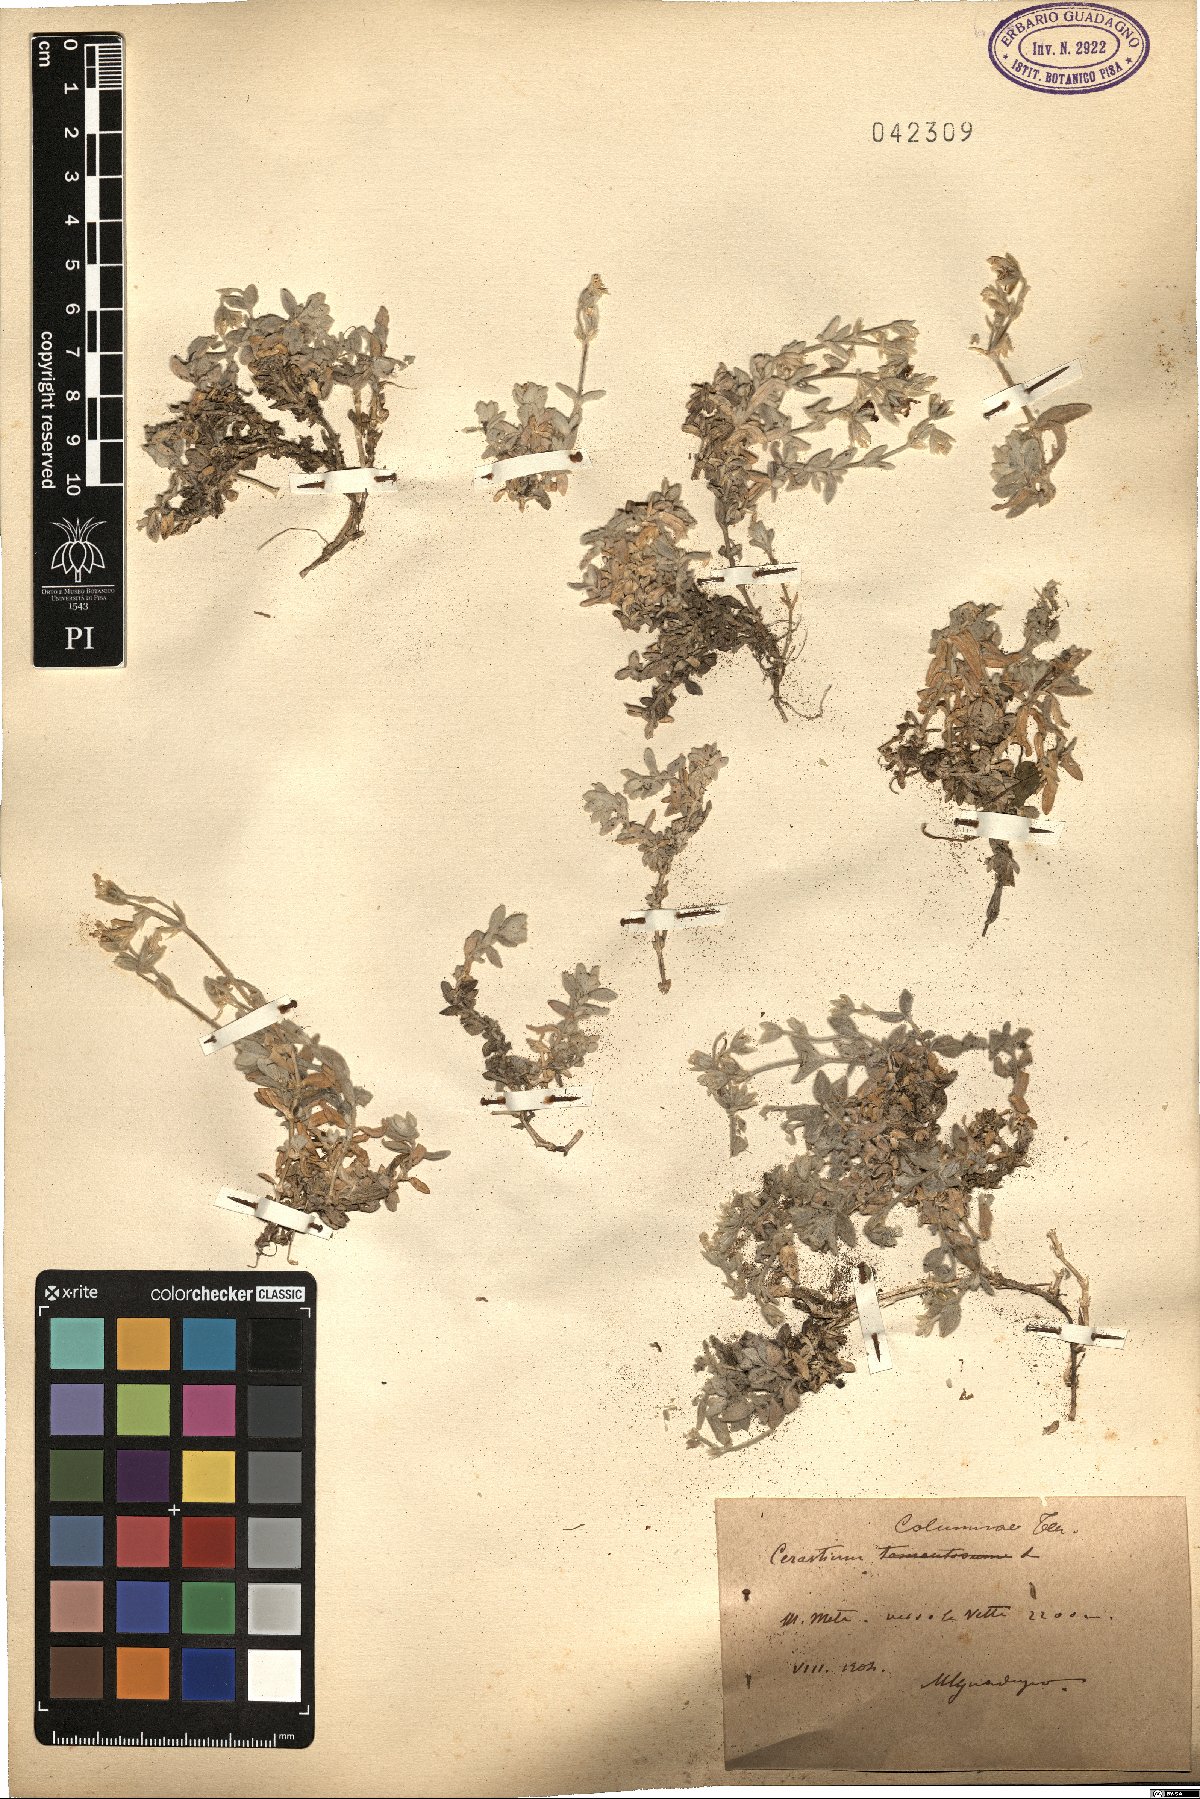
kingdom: Plantae
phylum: Tracheophyta
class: Magnoliopsida
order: Caryophyllales
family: Caryophyllaceae
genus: Cerastium
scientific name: Cerastium tomentosum
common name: Snow-in-summer
